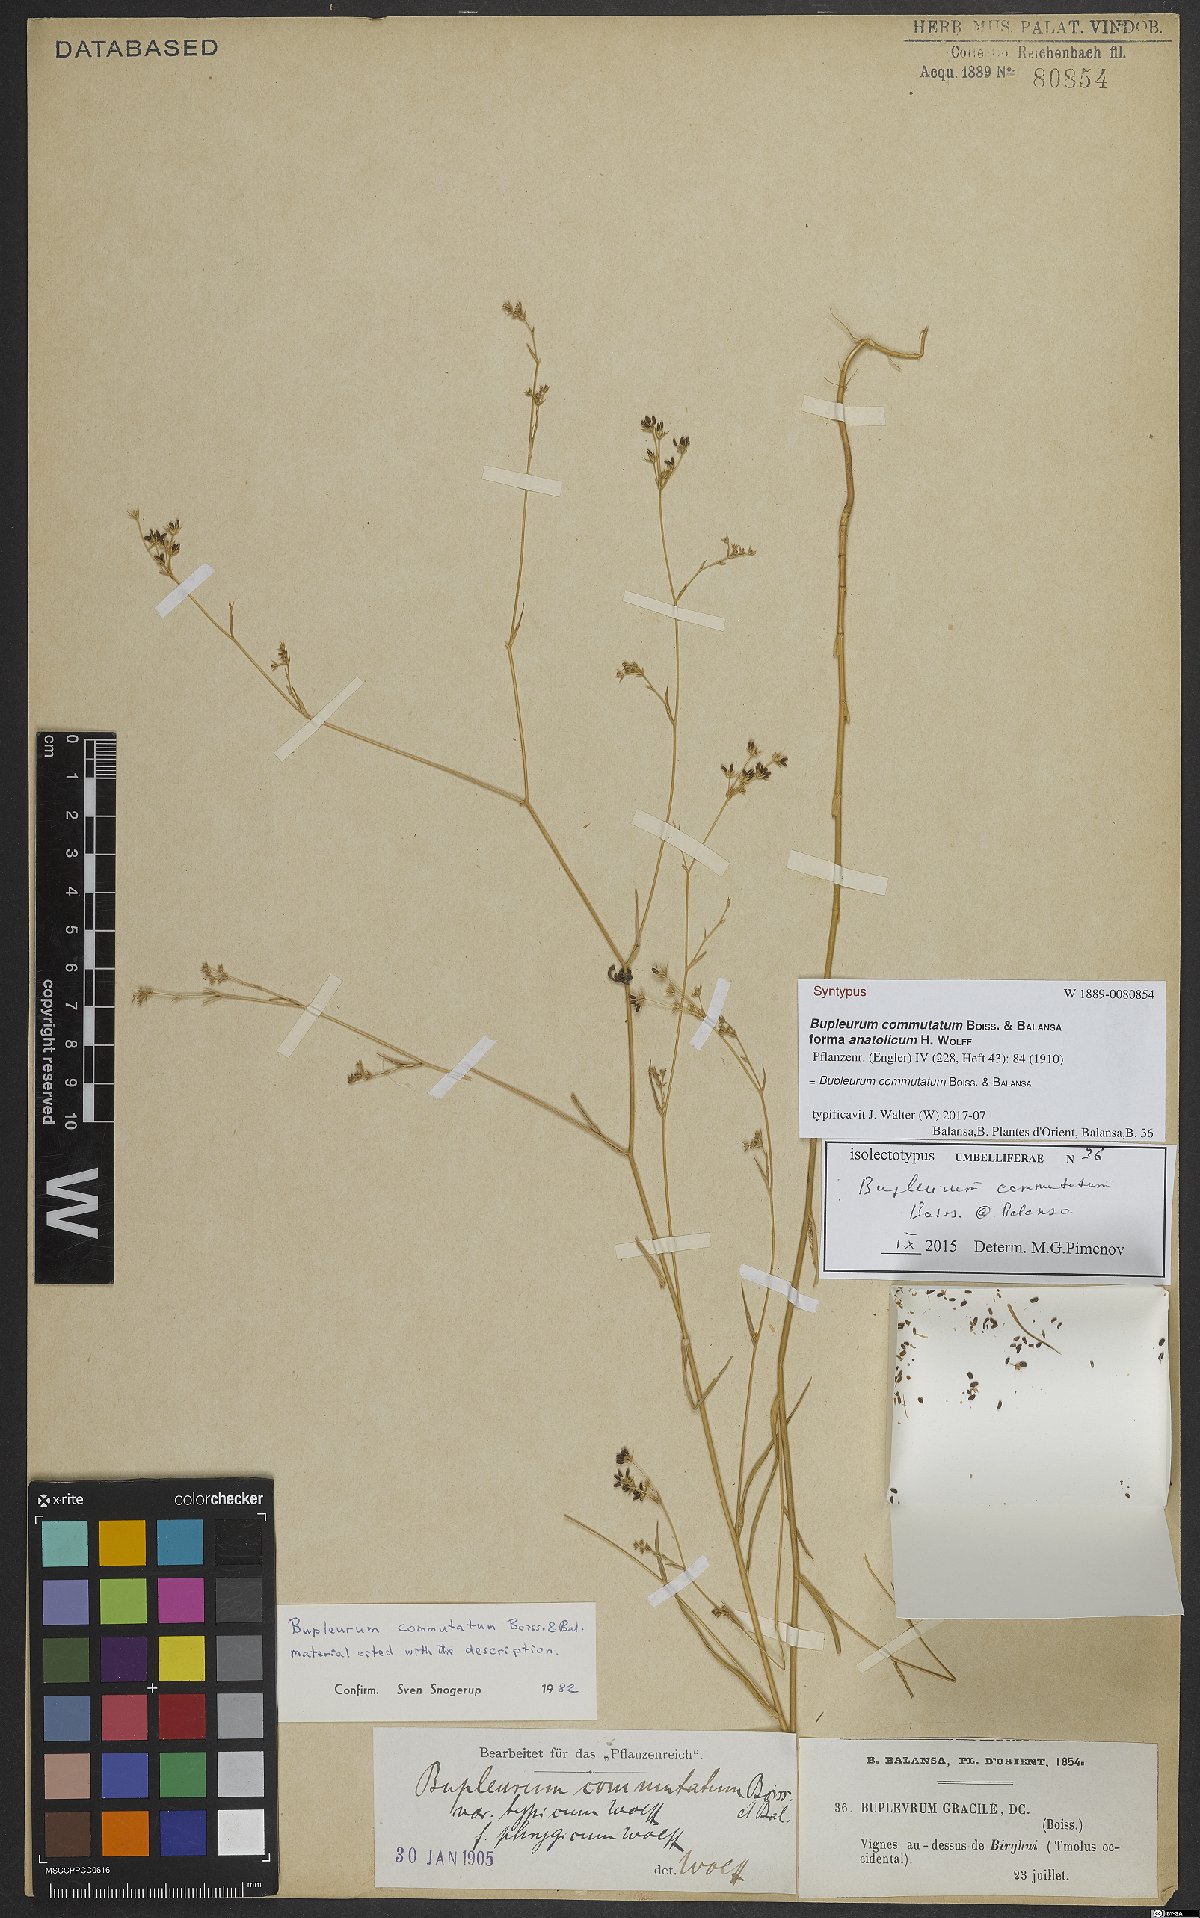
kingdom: Plantae
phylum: Tracheophyta
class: Magnoliopsida
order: Apiales
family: Apiaceae
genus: Bupleurum
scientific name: Bupleurum commutatum
